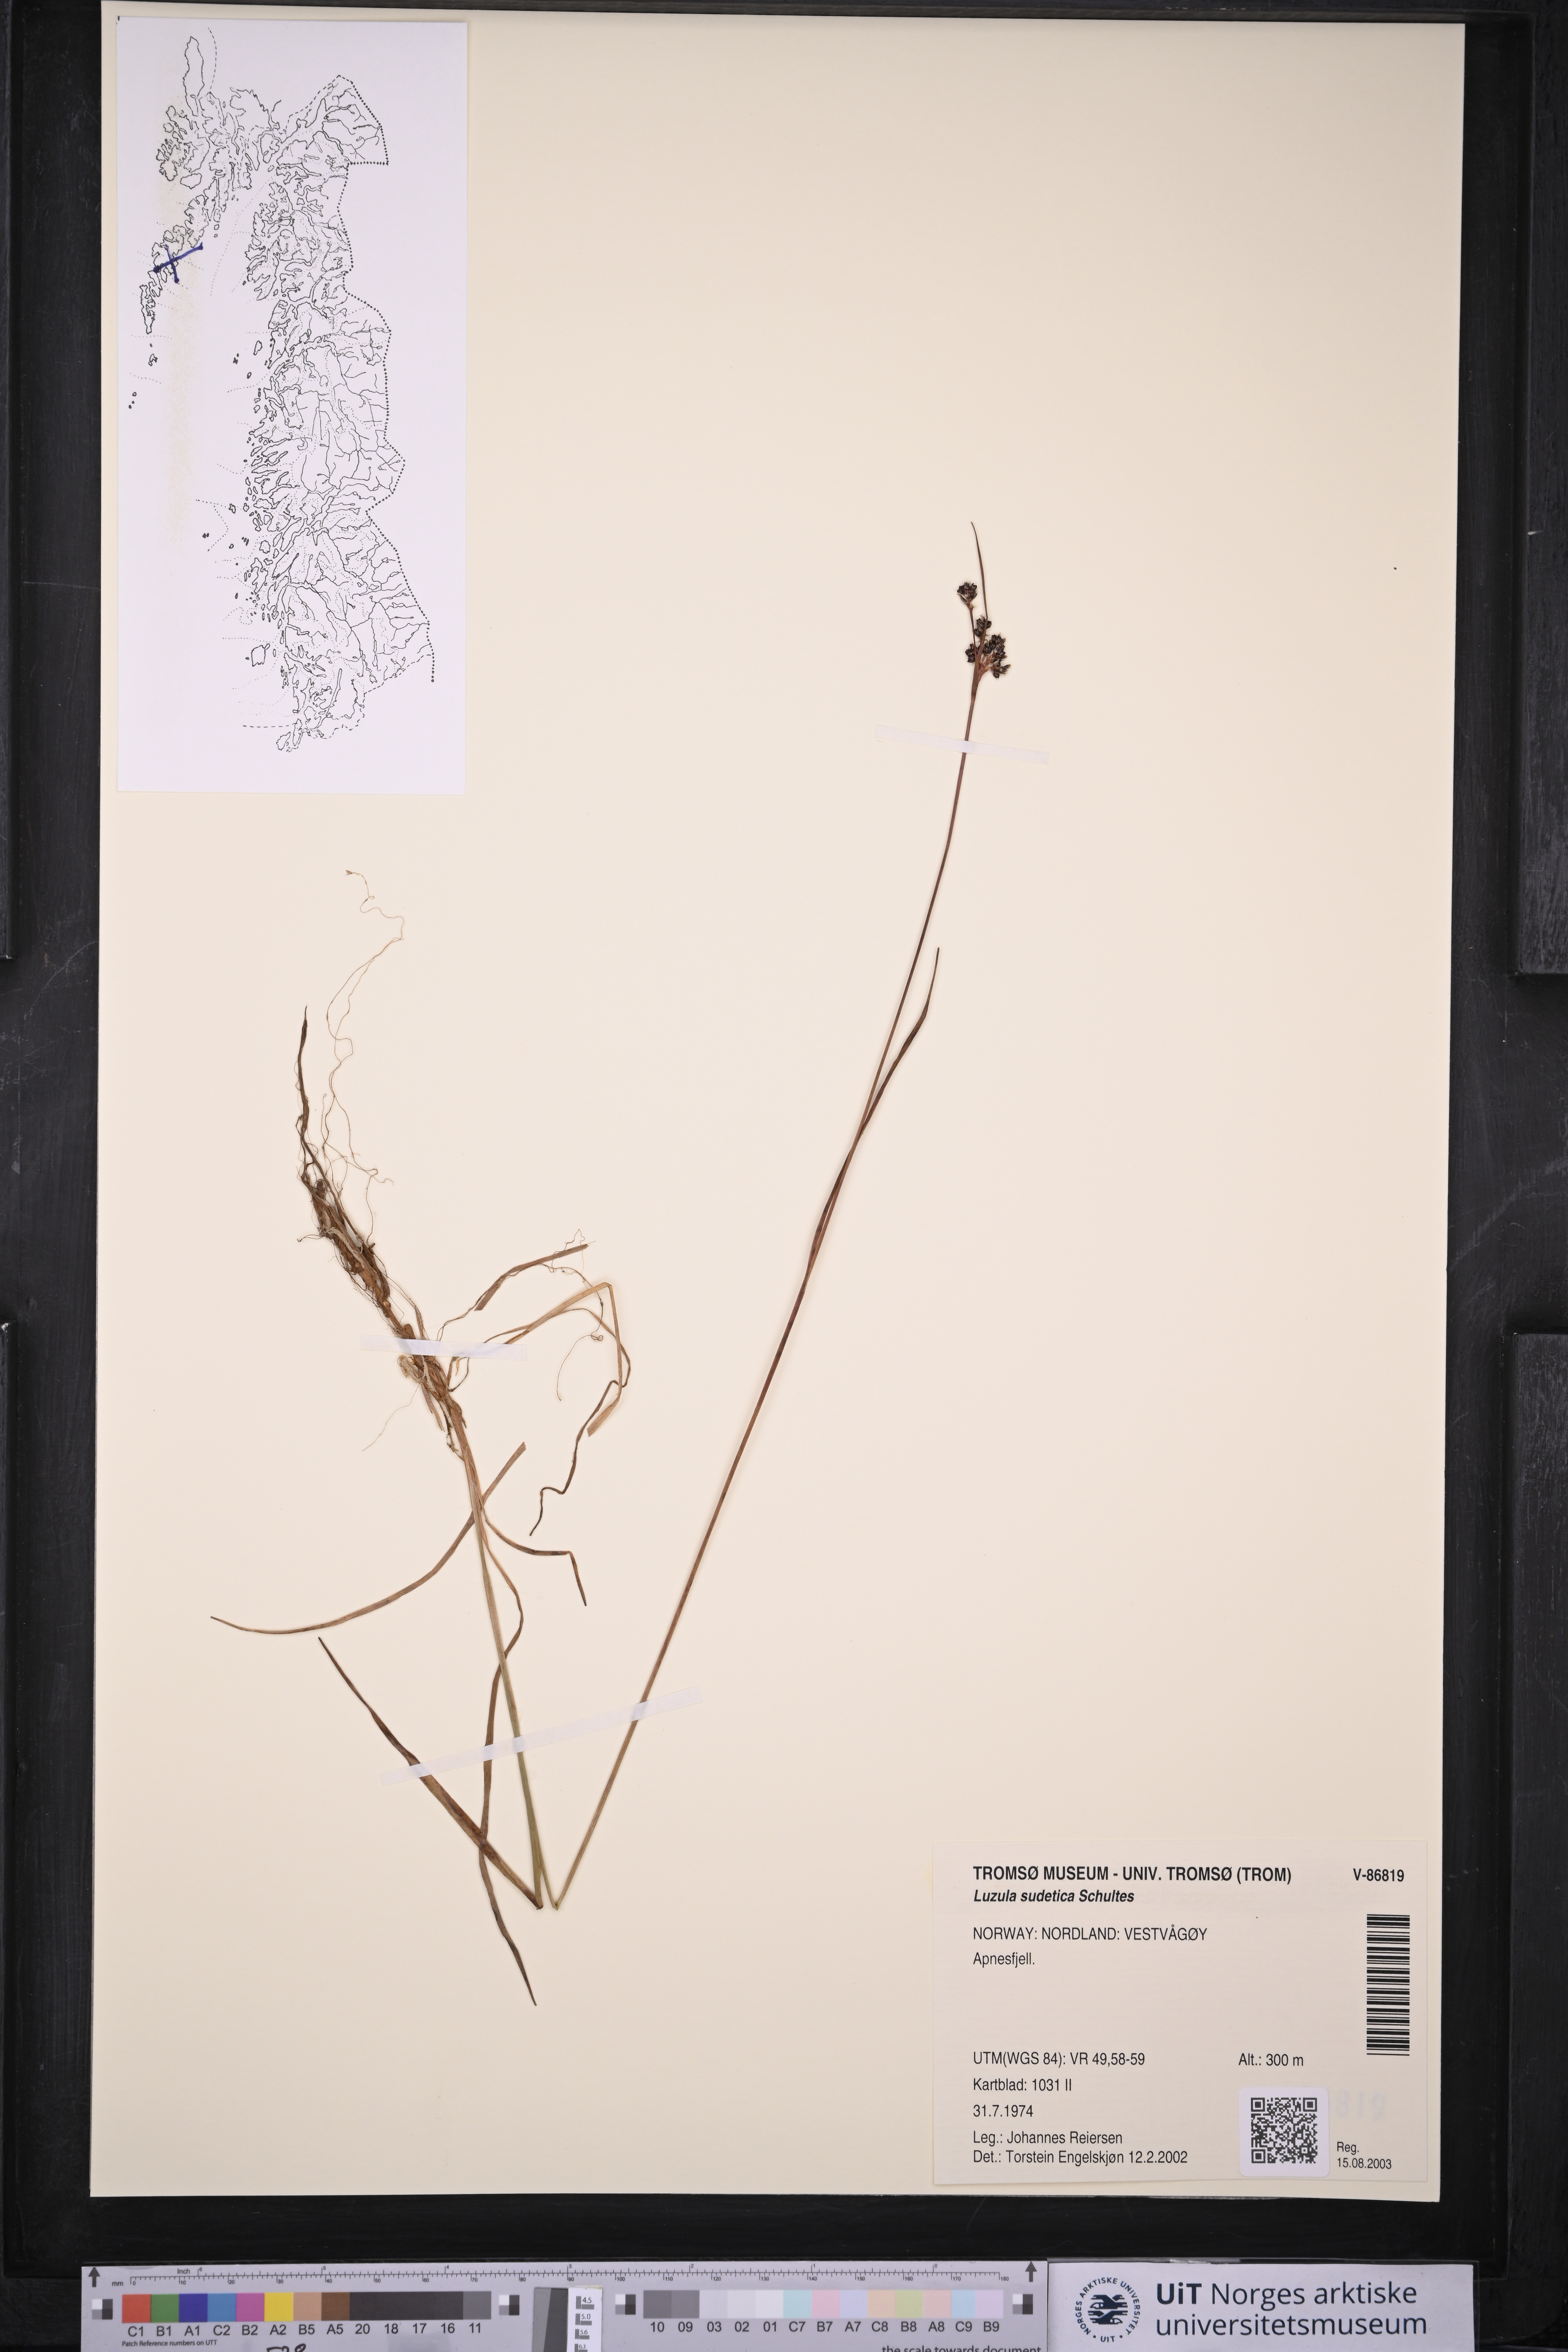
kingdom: Plantae
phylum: Tracheophyta
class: Liliopsida
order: Poales
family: Juncaceae
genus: Luzula
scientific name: Luzula sudetica
